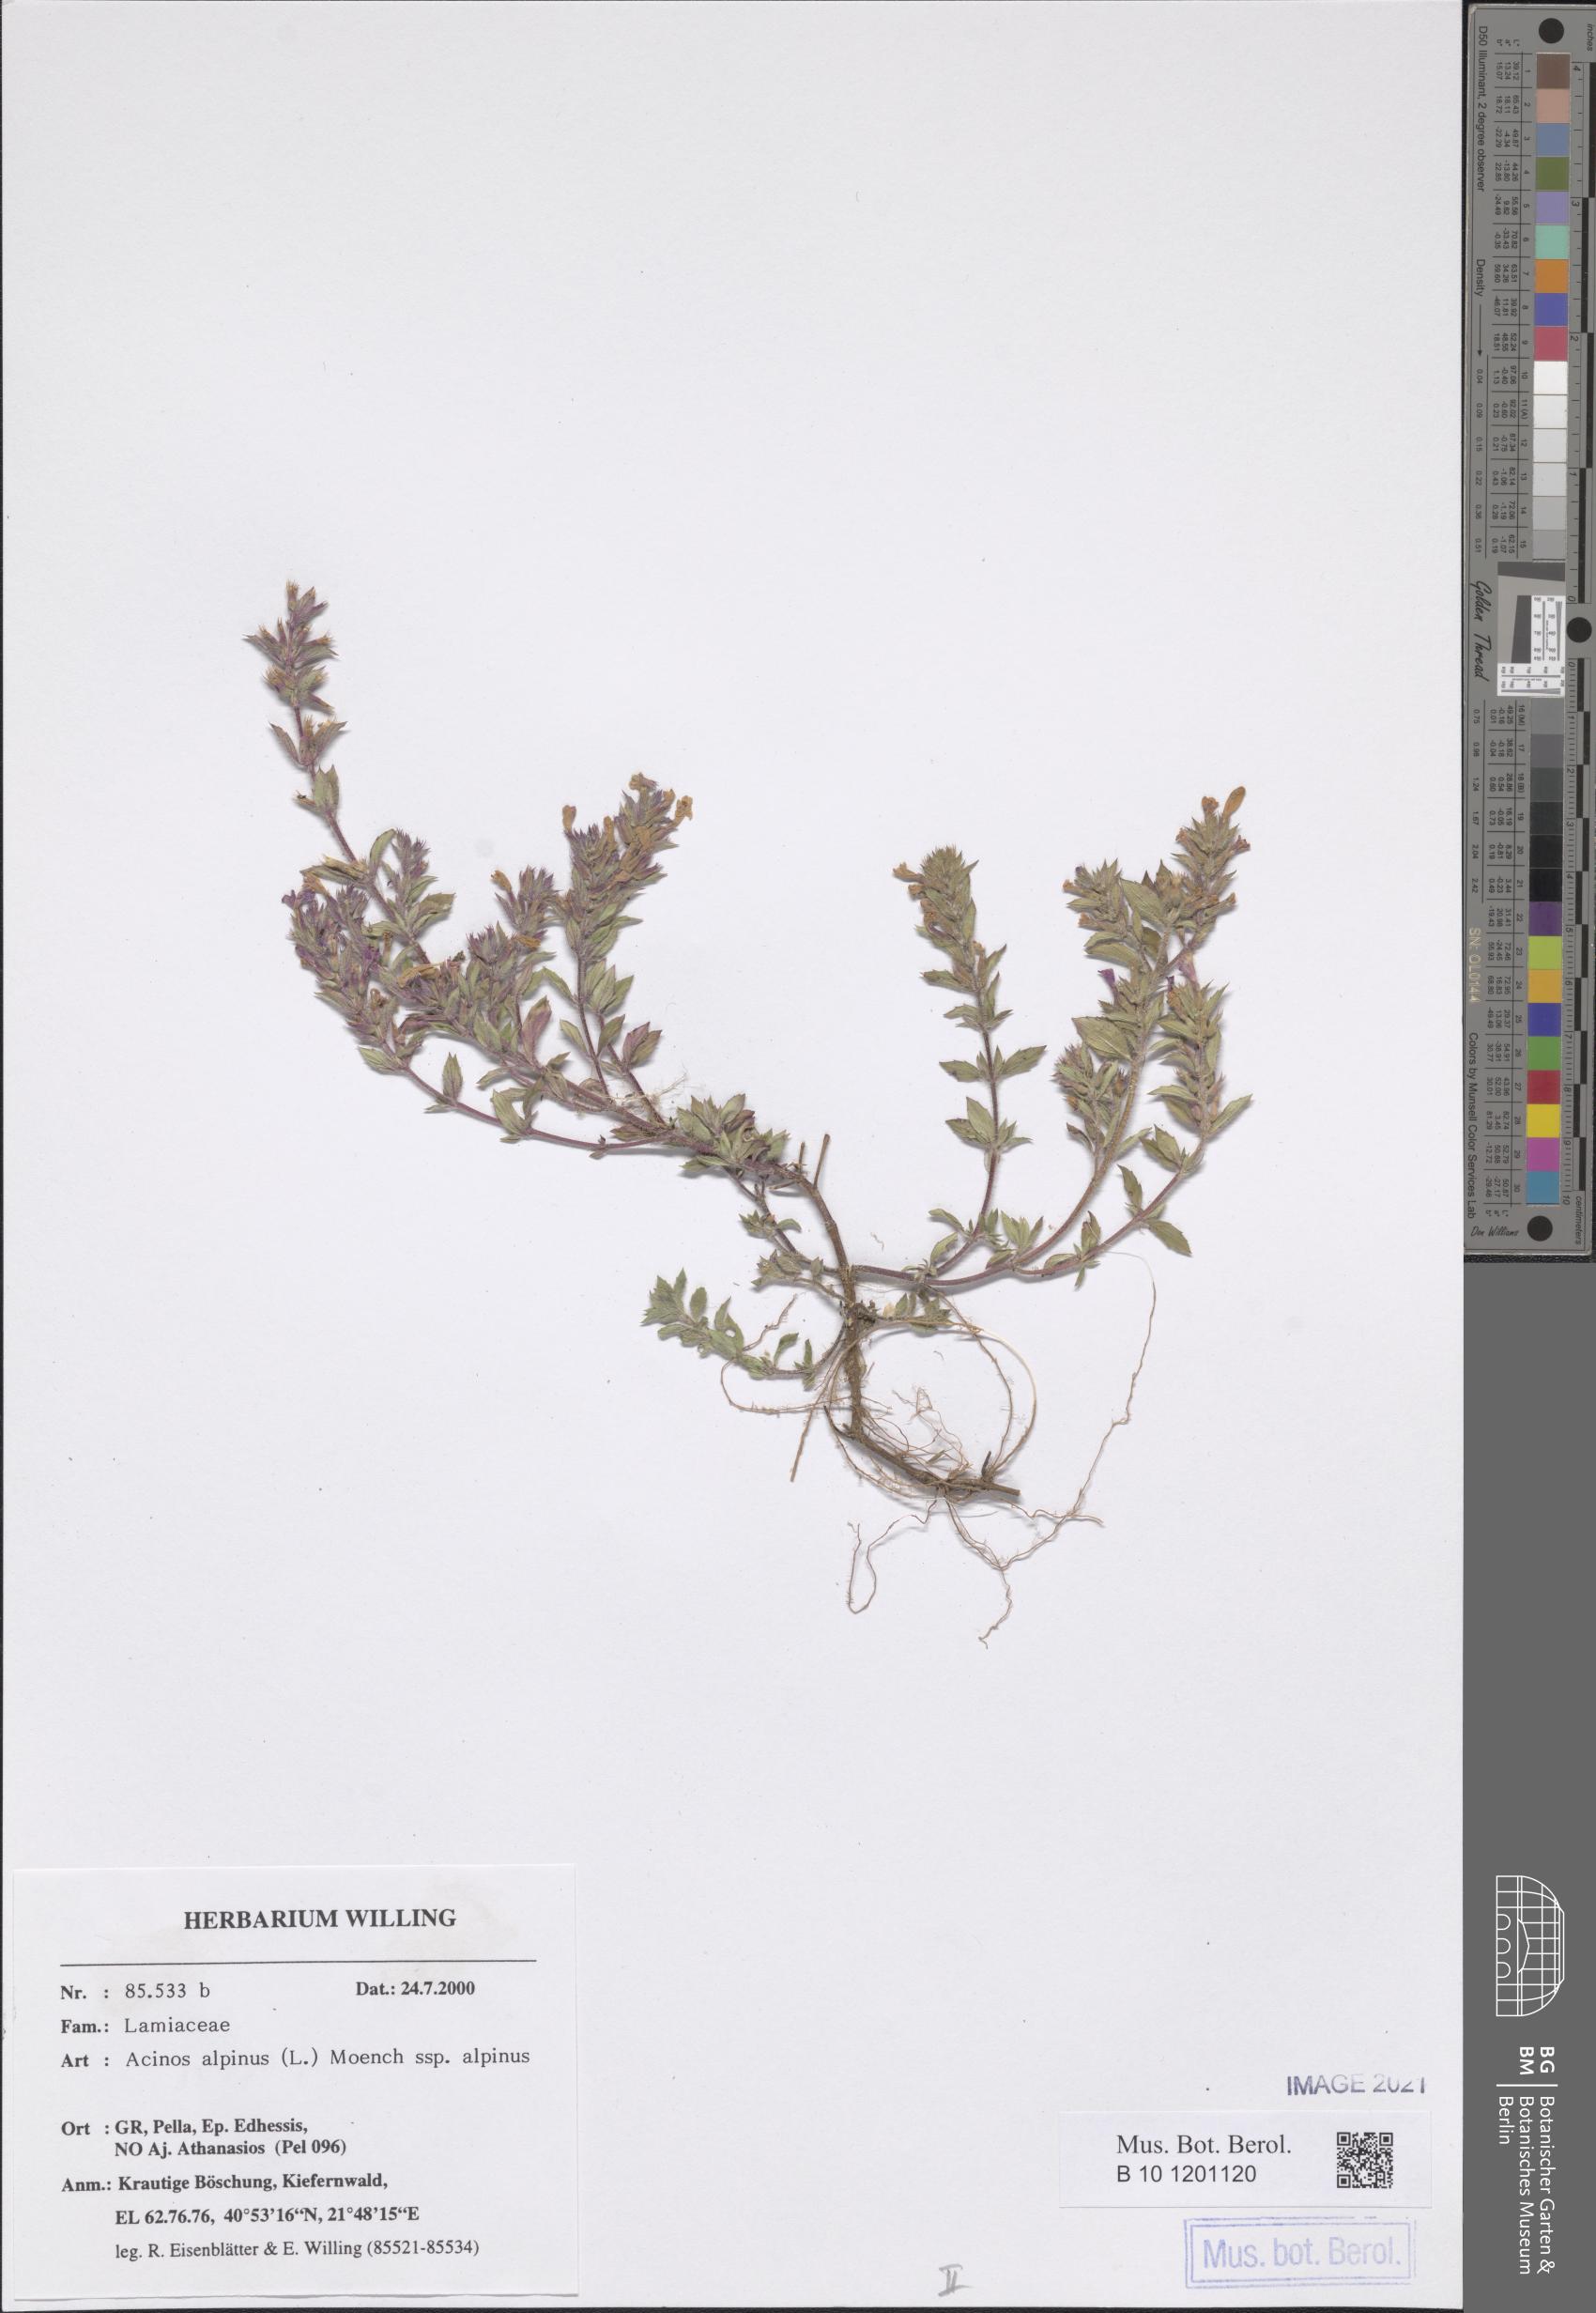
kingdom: Plantae
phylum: Tracheophyta
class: Magnoliopsida
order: Lamiales
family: Lamiaceae
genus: Clinopodium
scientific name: Clinopodium alpinum
